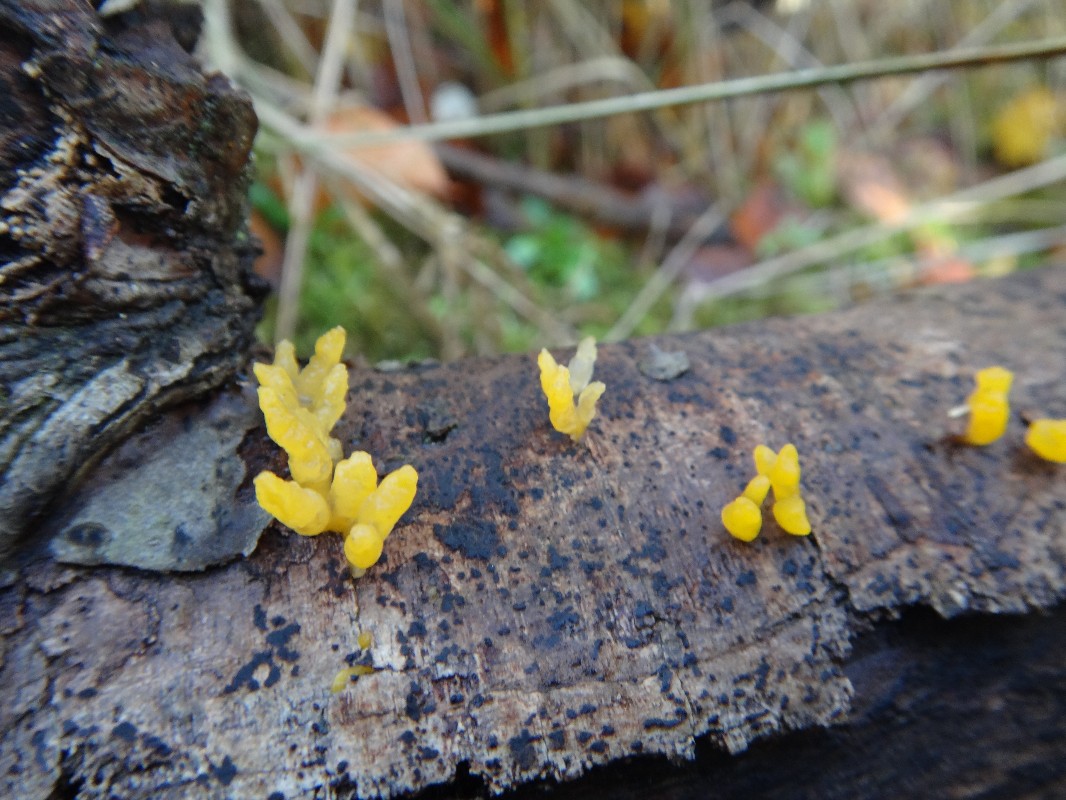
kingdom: Fungi
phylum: Basidiomycota
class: Dacrymycetes
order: Dacrymycetales
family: Dacrymycetaceae
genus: Calocera
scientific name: Calocera cornea
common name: liden guldgaffel
